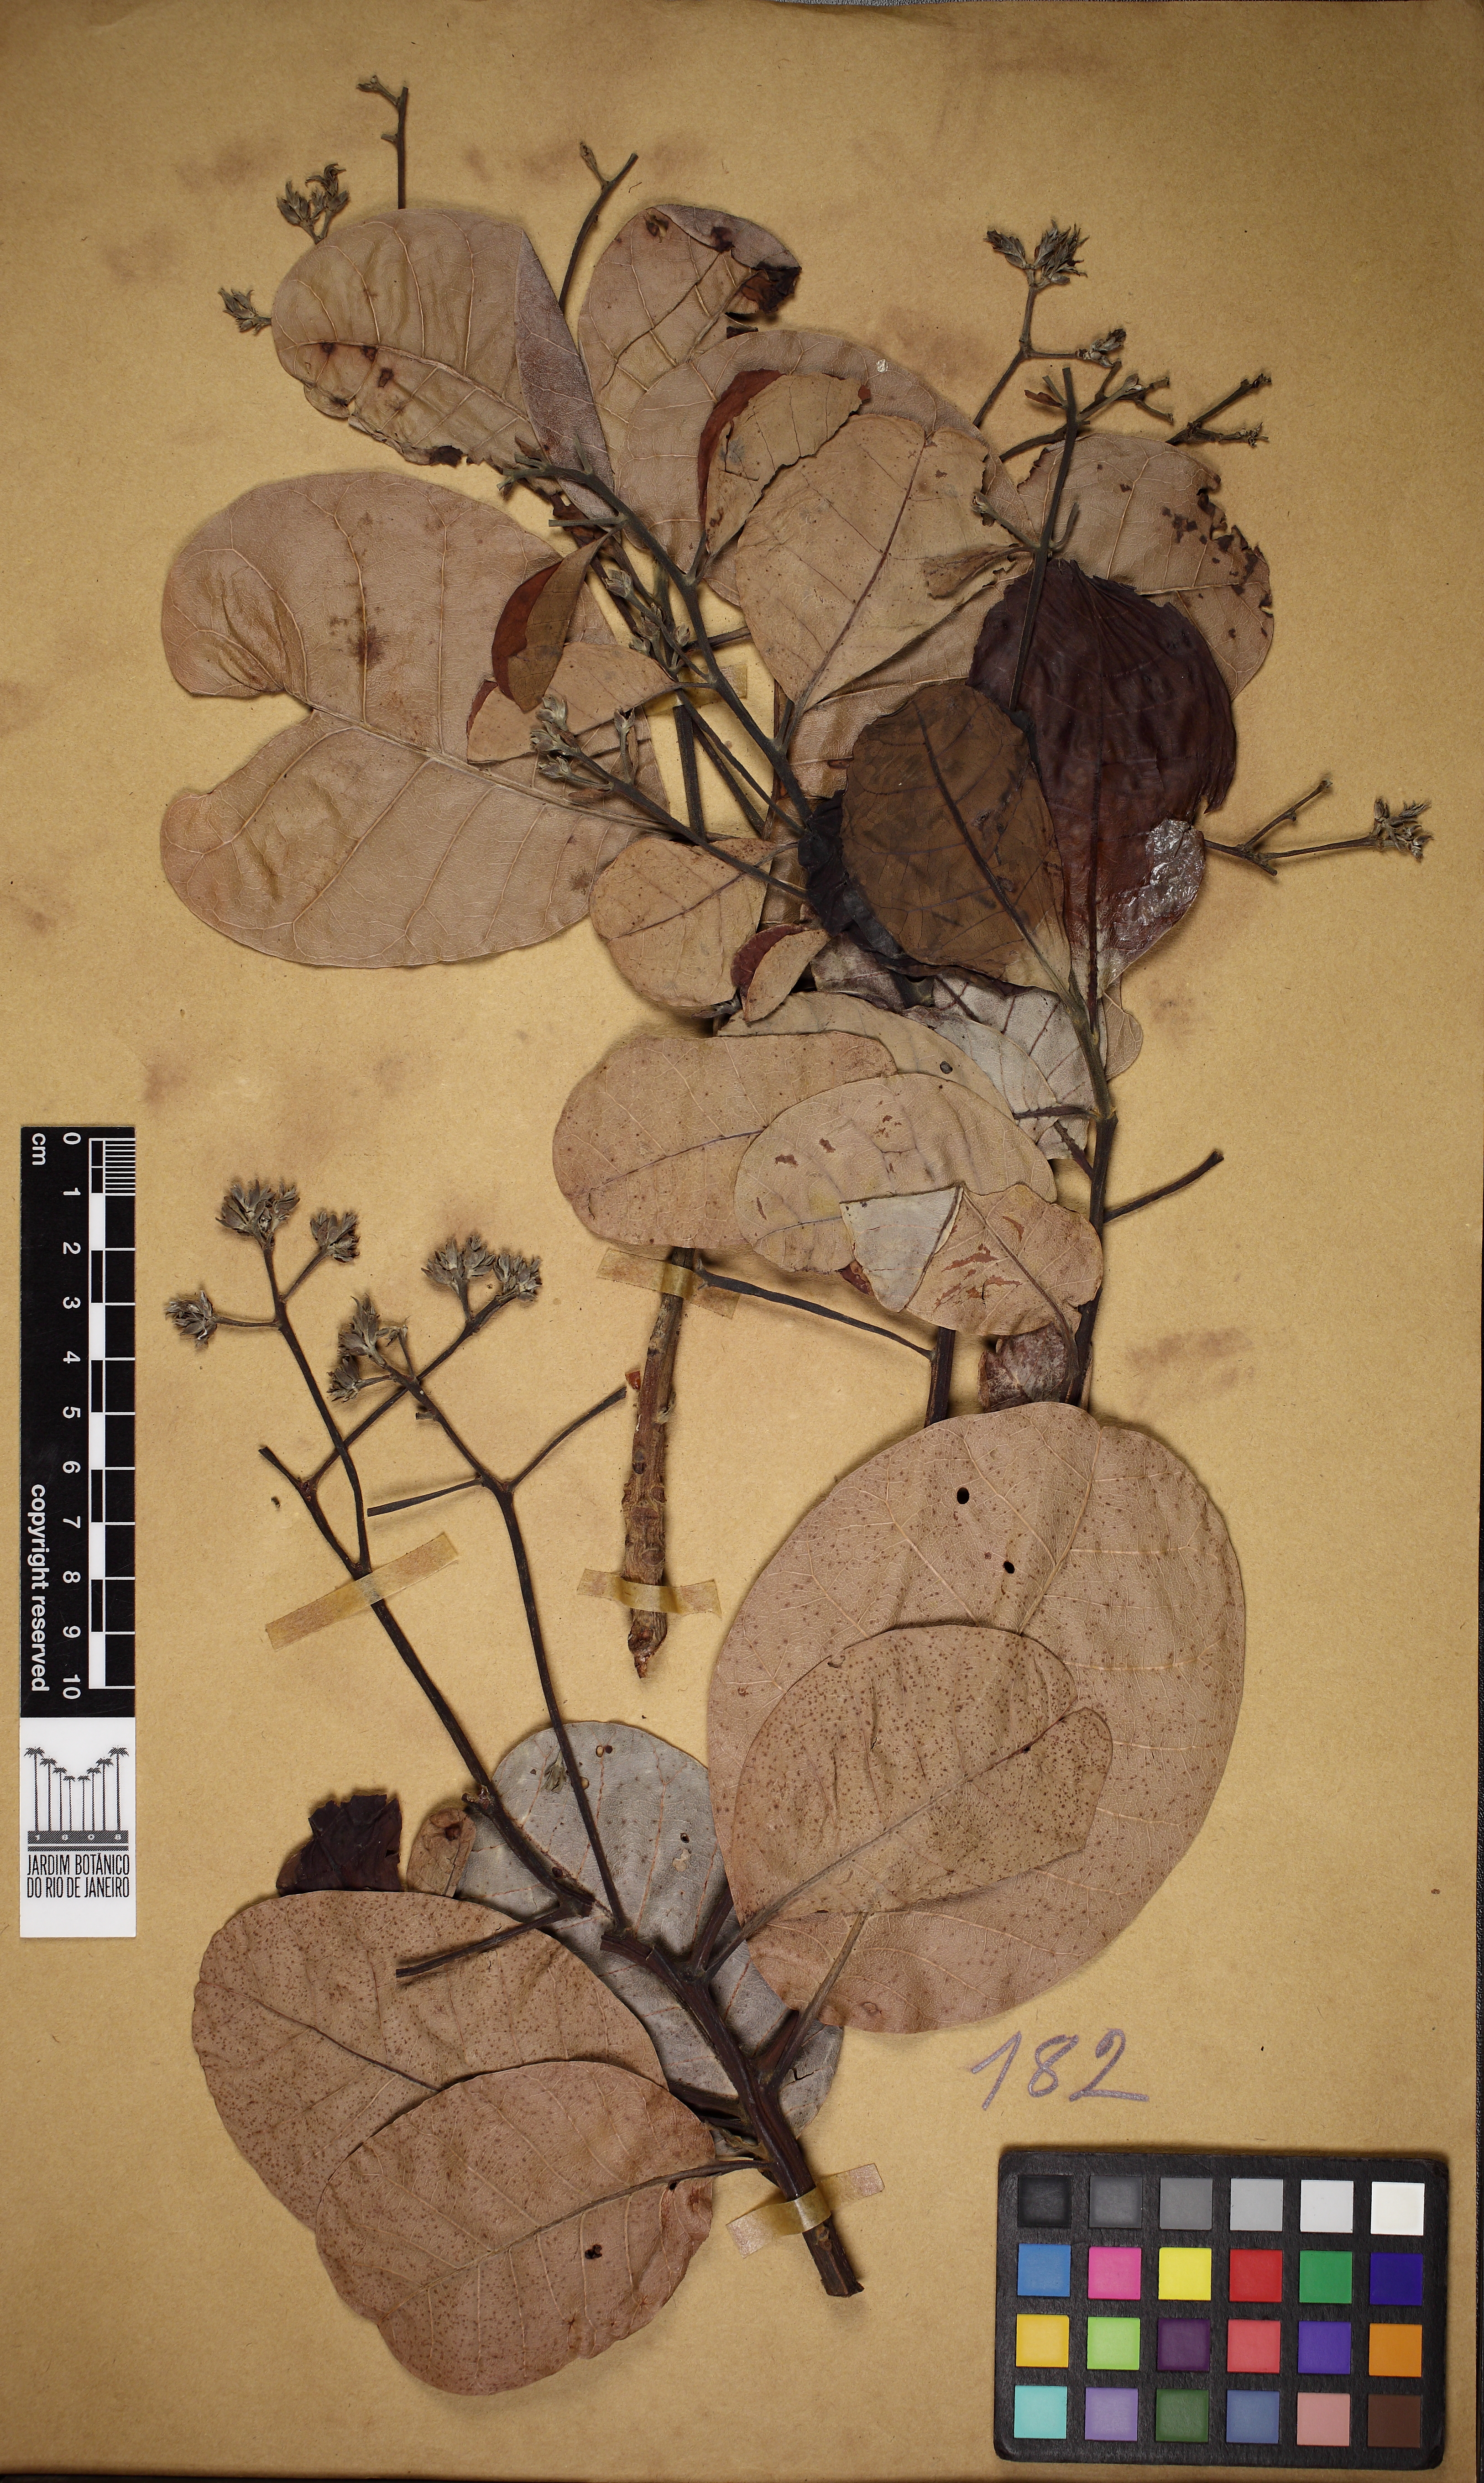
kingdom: Plantae
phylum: Tracheophyta
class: Magnoliopsida
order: Sapindales
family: Anacardiaceae
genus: Anacardium
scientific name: Anacardium occidentale
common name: Cashew
